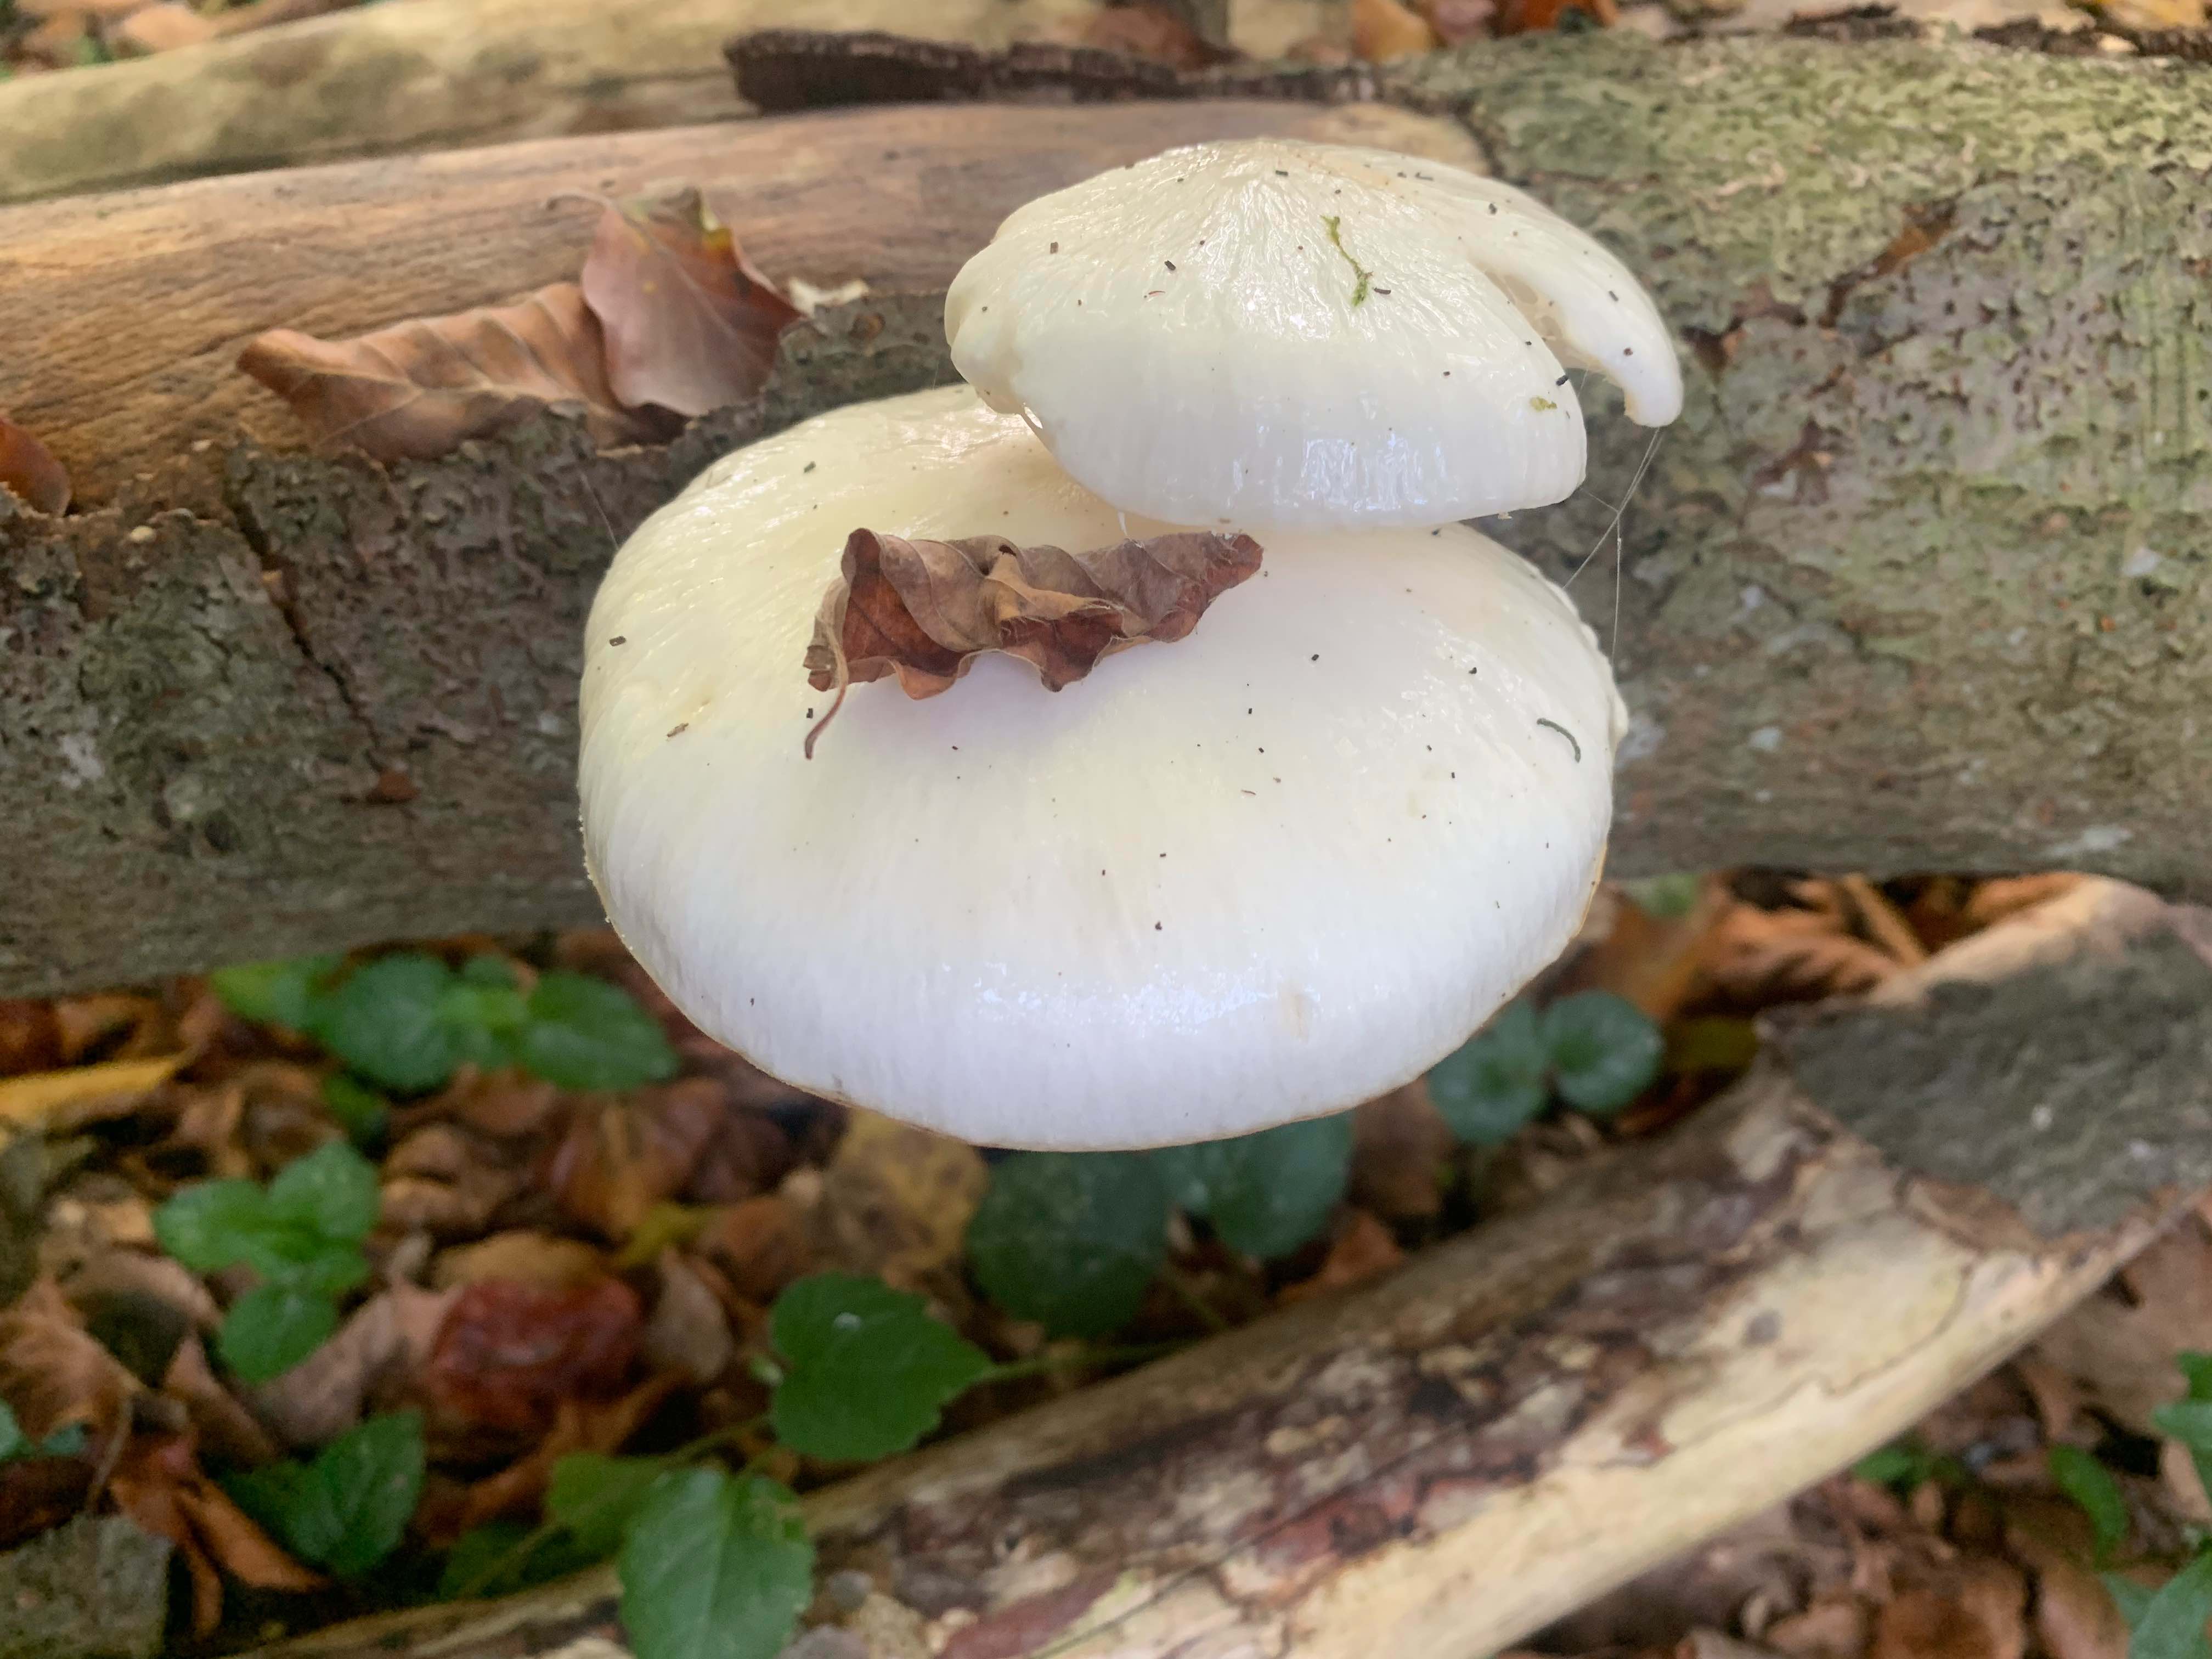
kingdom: Fungi
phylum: Basidiomycota
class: Agaricomycetes
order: Agaricales
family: Physalacriaceae
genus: Mucidula
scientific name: Mucidula mucida
